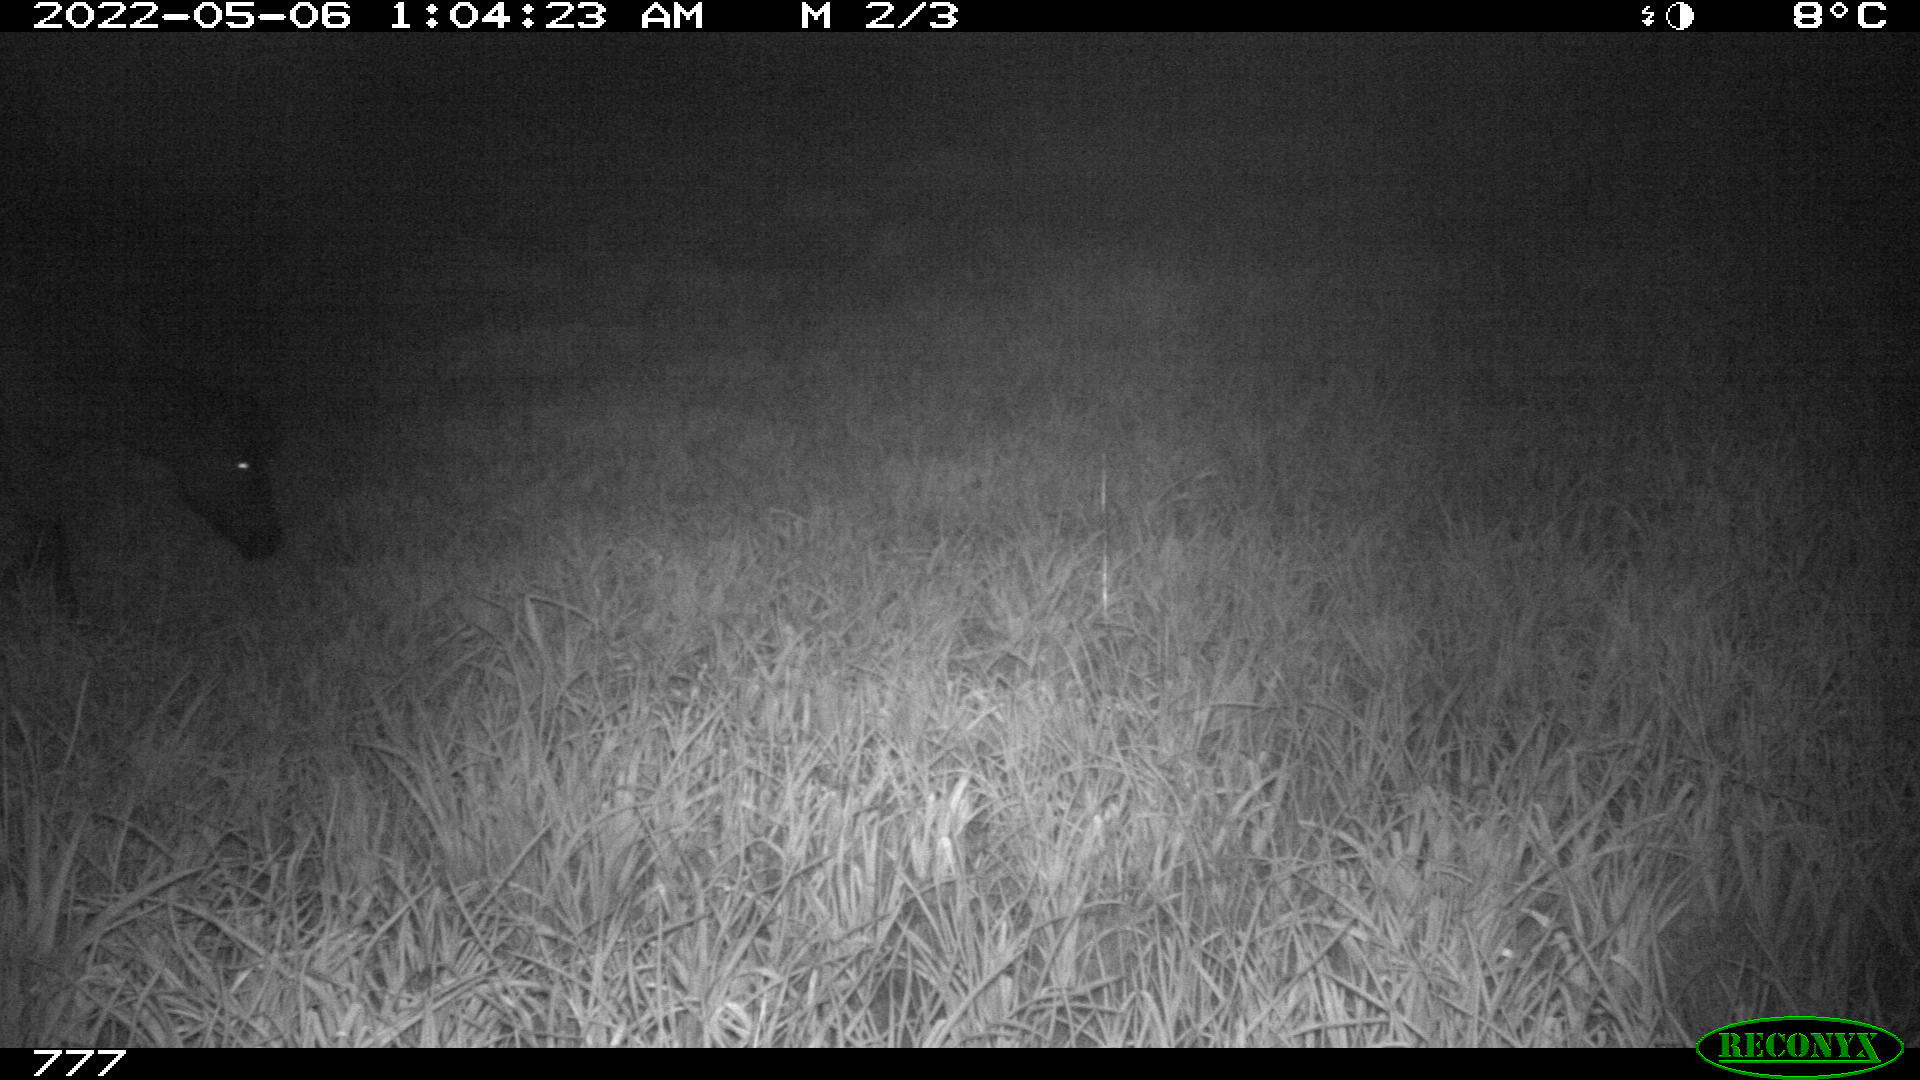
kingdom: Animalia
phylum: Chordata
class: Mammalia
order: Perissodactyla
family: Equidae
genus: Equus
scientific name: Equus caballus
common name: Horse
